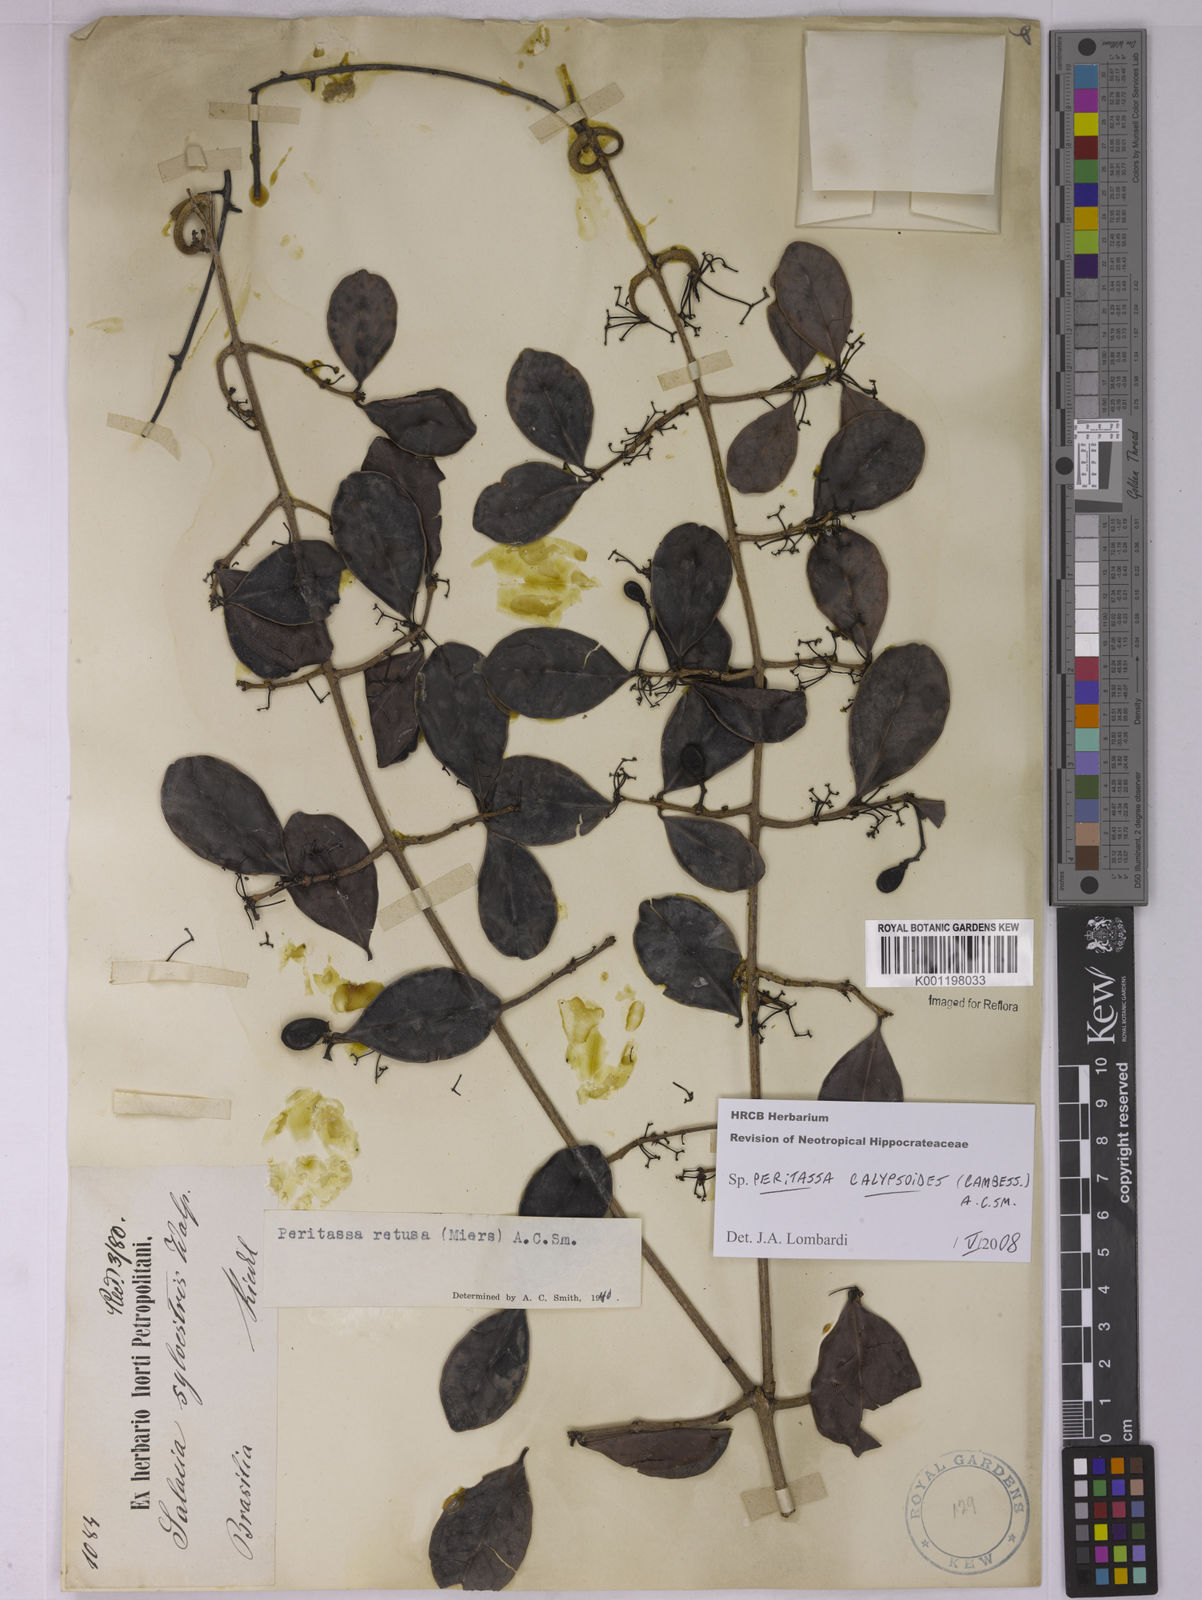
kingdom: Plantae
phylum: Tracheophyta
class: Magnoliopsida
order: Celastrales
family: Celastraceae
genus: Peritassa
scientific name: Peritassa calypsoides
